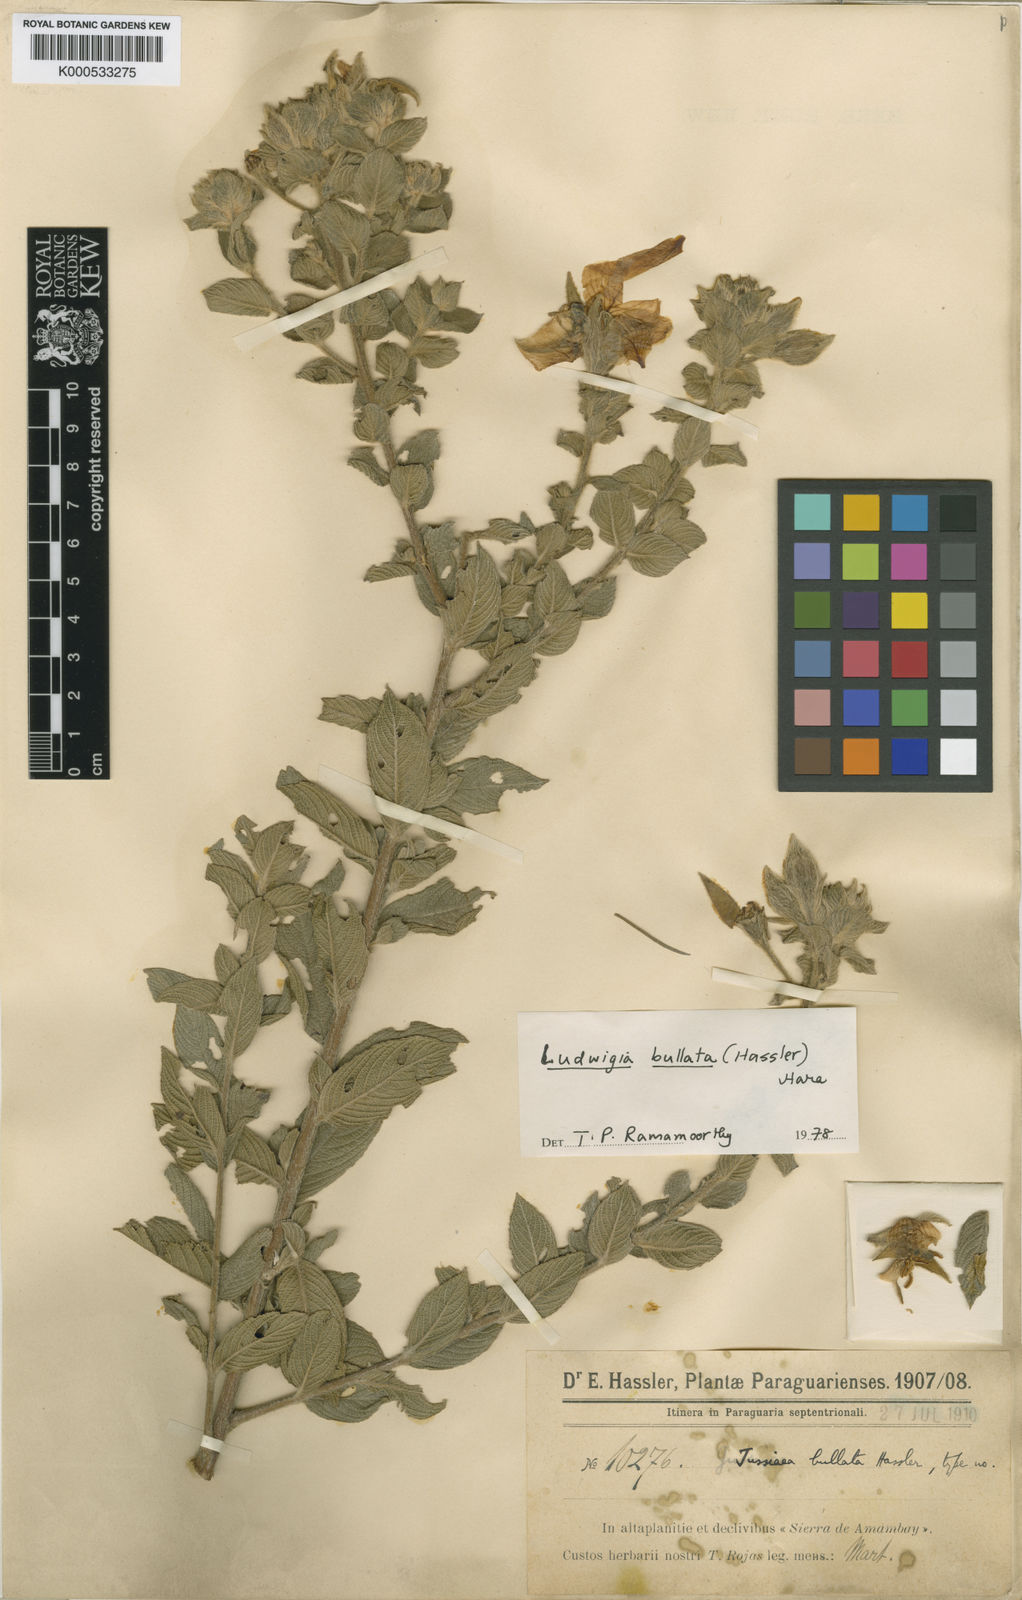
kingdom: Plantae
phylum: Tracheophyta
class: Magnoliopsida
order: Myrtales
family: Onagraceae
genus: Ludwigia
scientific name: Ludwigia bullata
